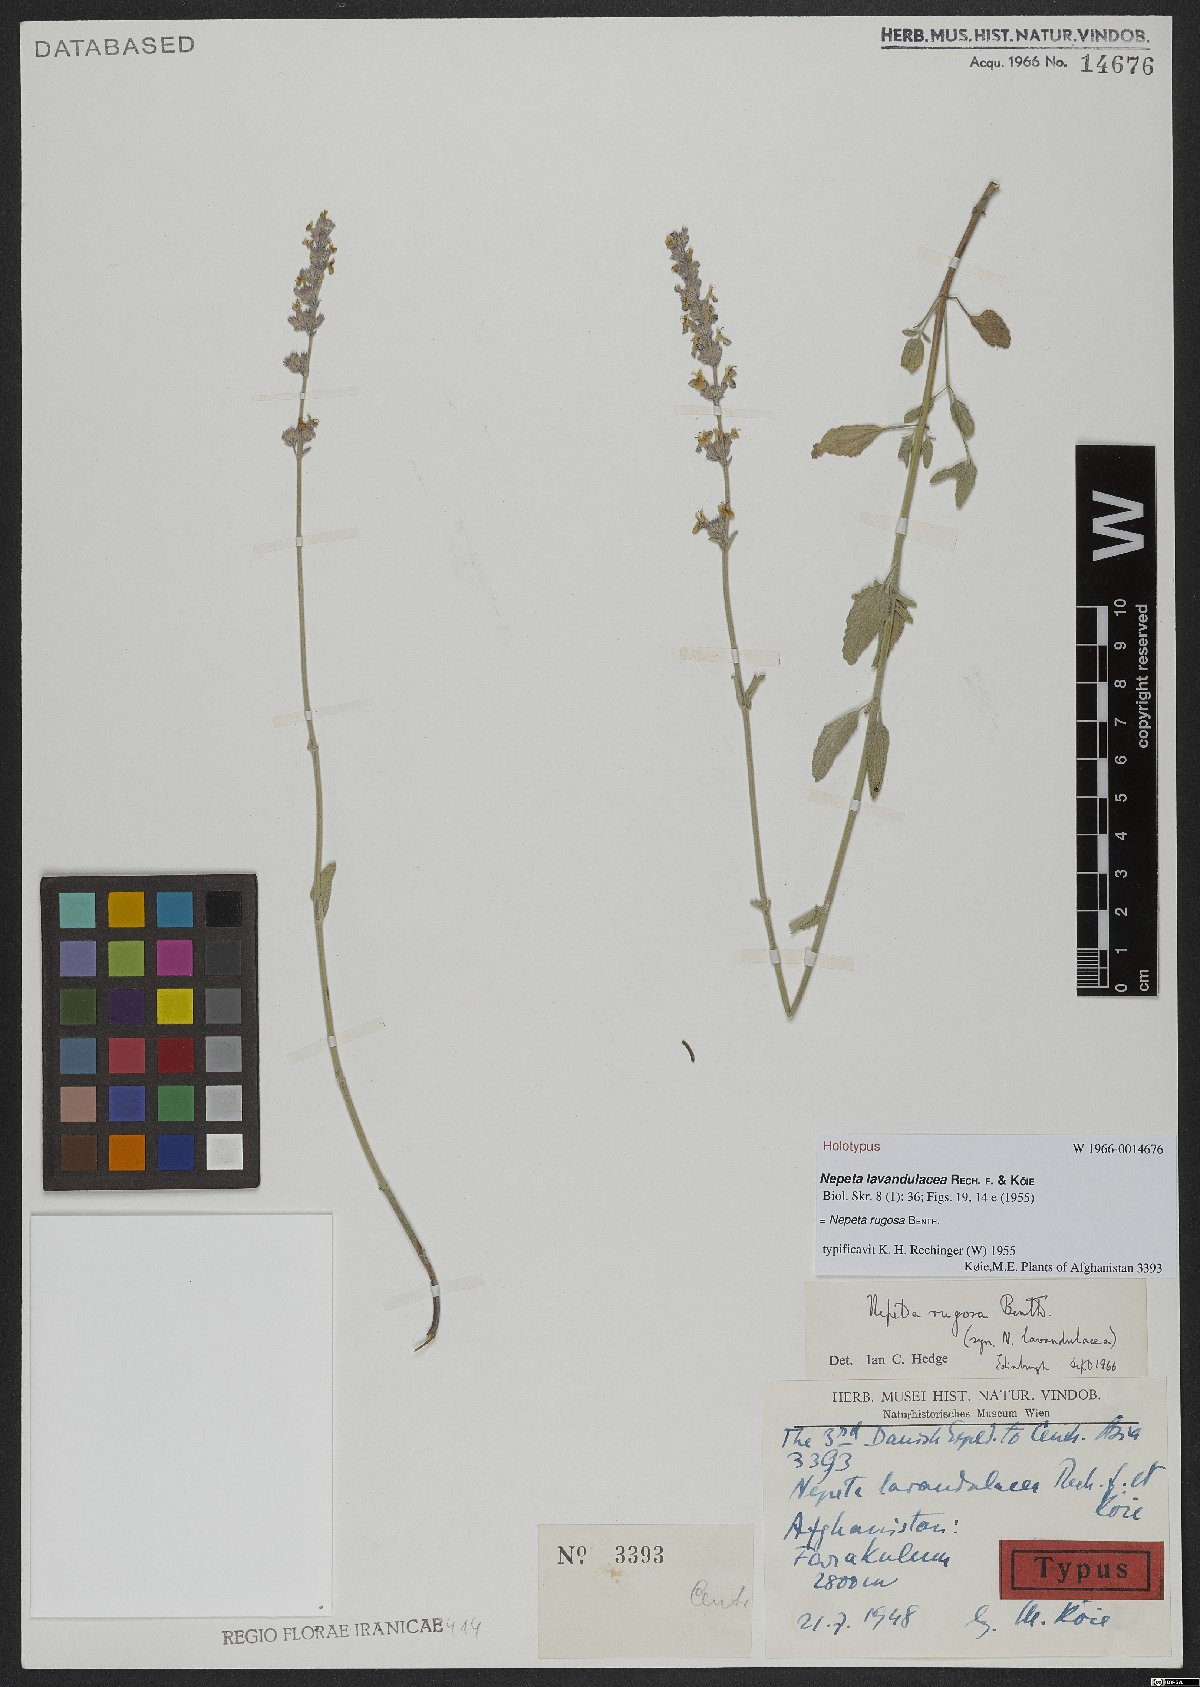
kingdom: Plantae
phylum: Tracheophyta
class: Magnoliopsida
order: Lamiales
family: Lamiaceae
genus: Nepeta
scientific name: Nepeta rugosa
